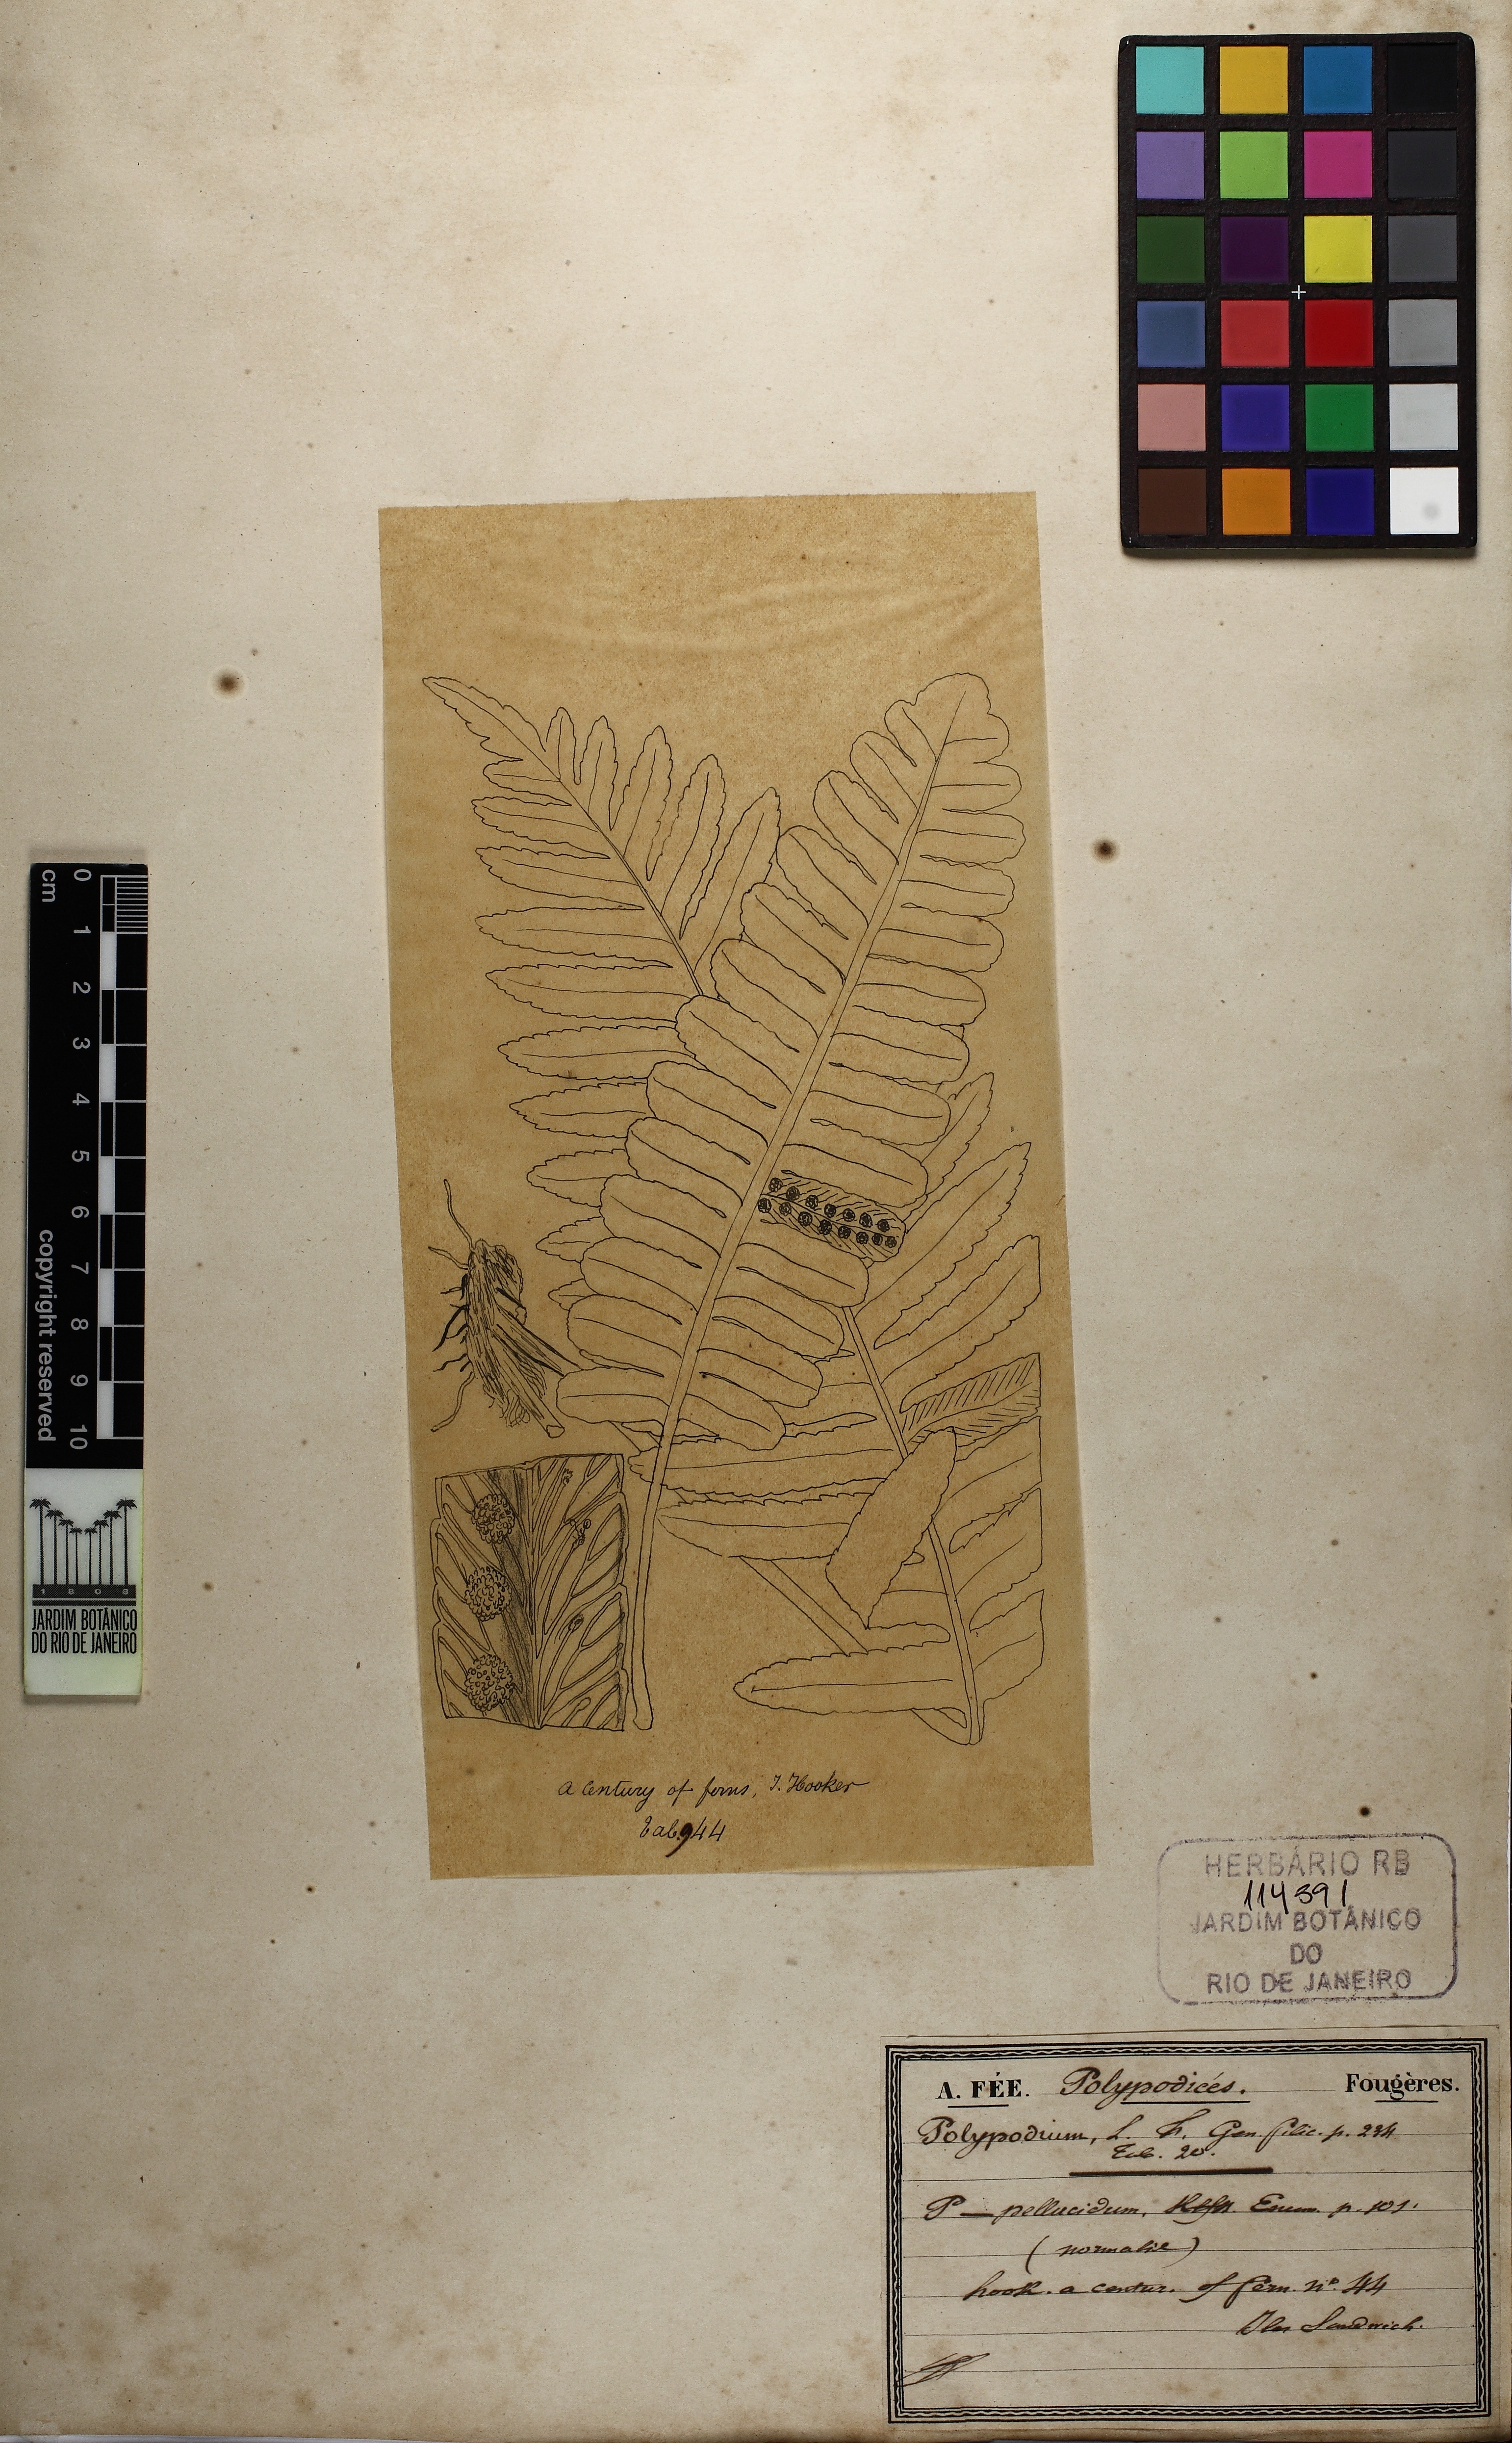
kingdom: Plantae
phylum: Tracheophyta
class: Polypodiopsida
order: Polypodiales
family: Polypodiaceae
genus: Polypodium
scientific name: Polypodium pellucidum
